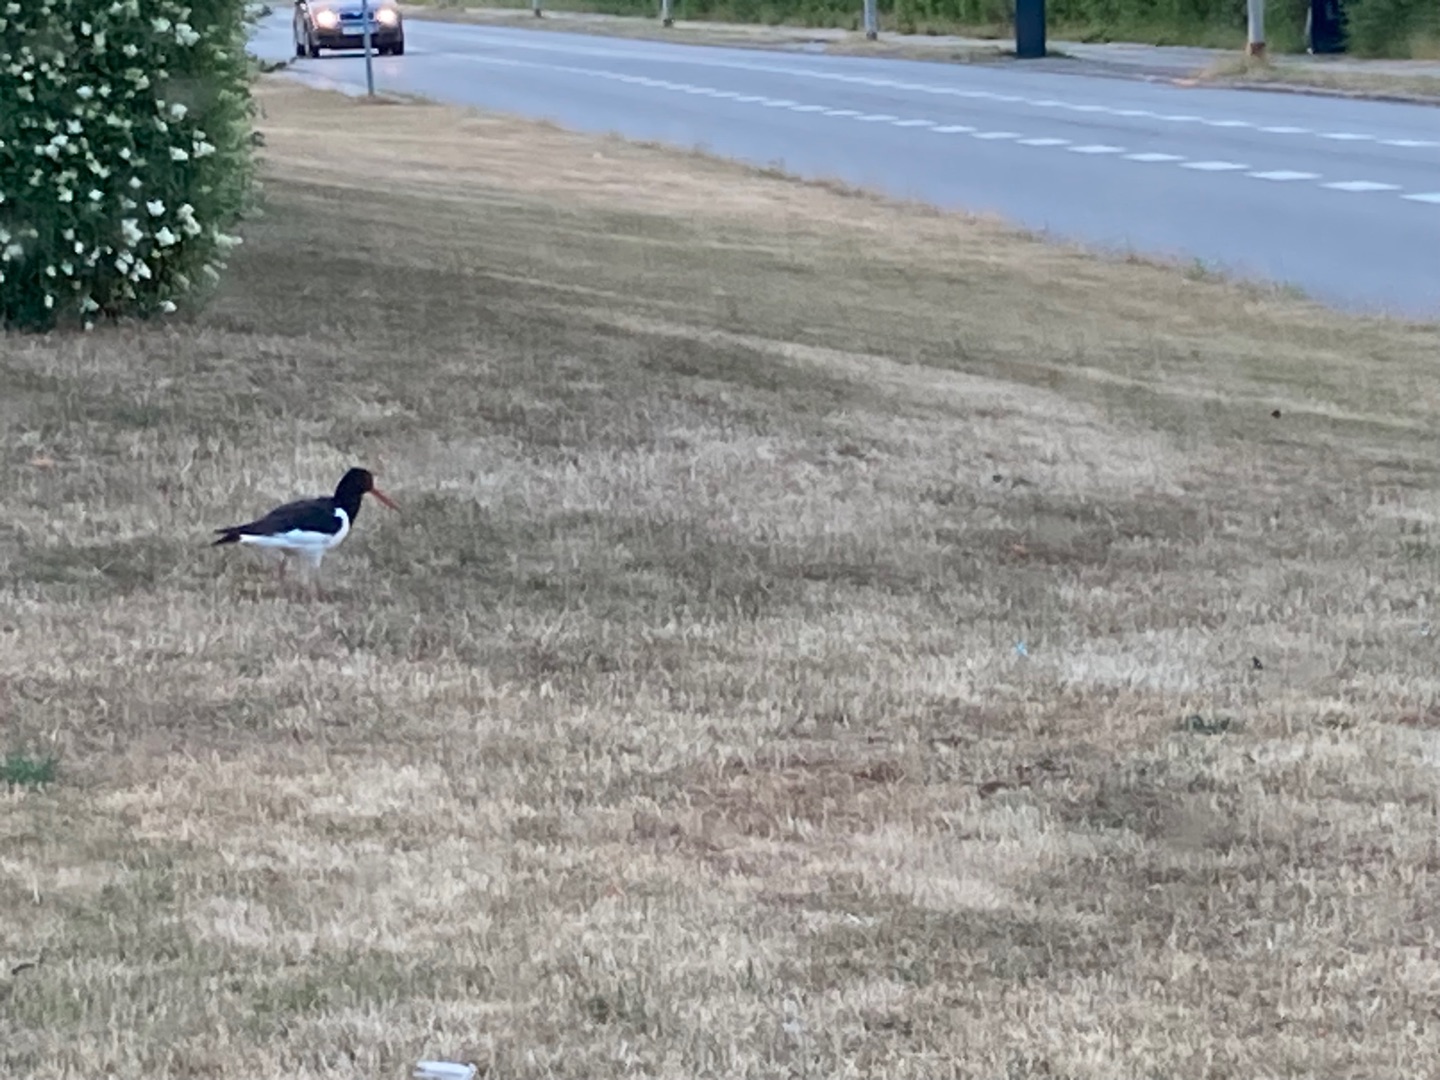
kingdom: Animalia
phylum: Chordata
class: Aves
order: Charadriiformes
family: Haematopodidae
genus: Haematopus
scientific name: Haematopus ostralegus
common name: Strandskade
